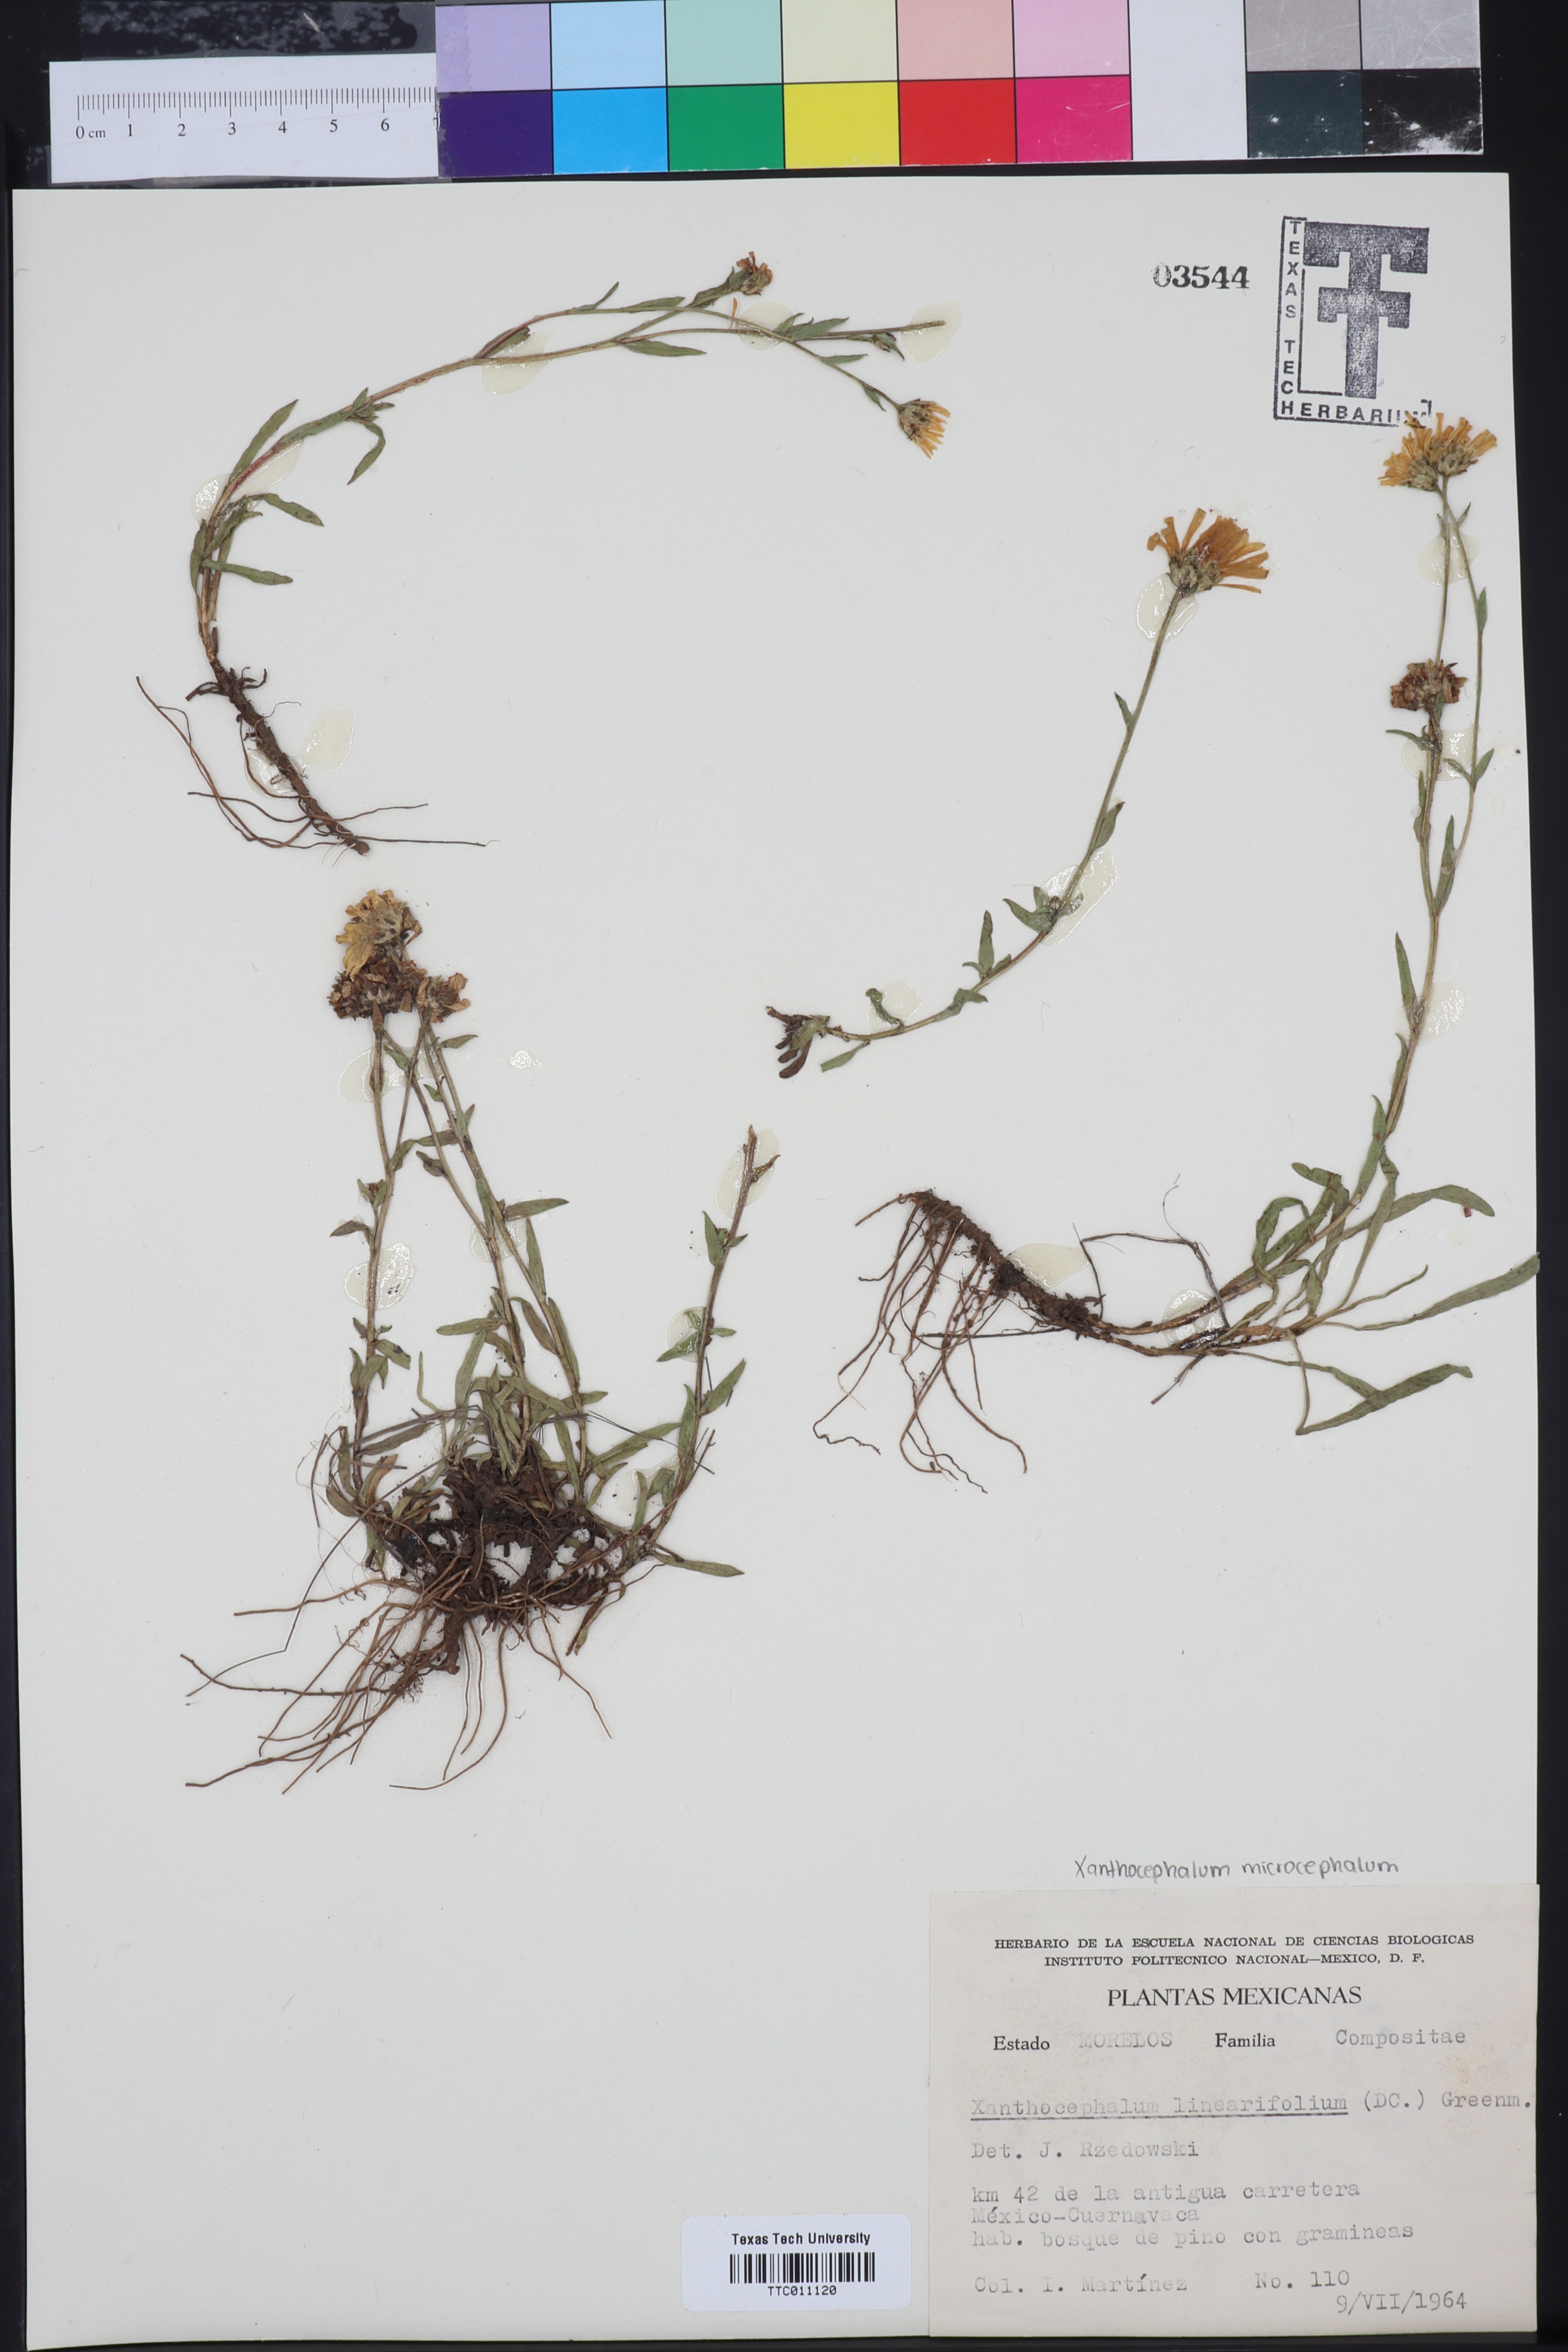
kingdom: Plantae
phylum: Tracheophyta
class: Magnoliopsida
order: Asterales
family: Asteraceae
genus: Gutierrezia
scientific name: Gutierrezia dunalii
